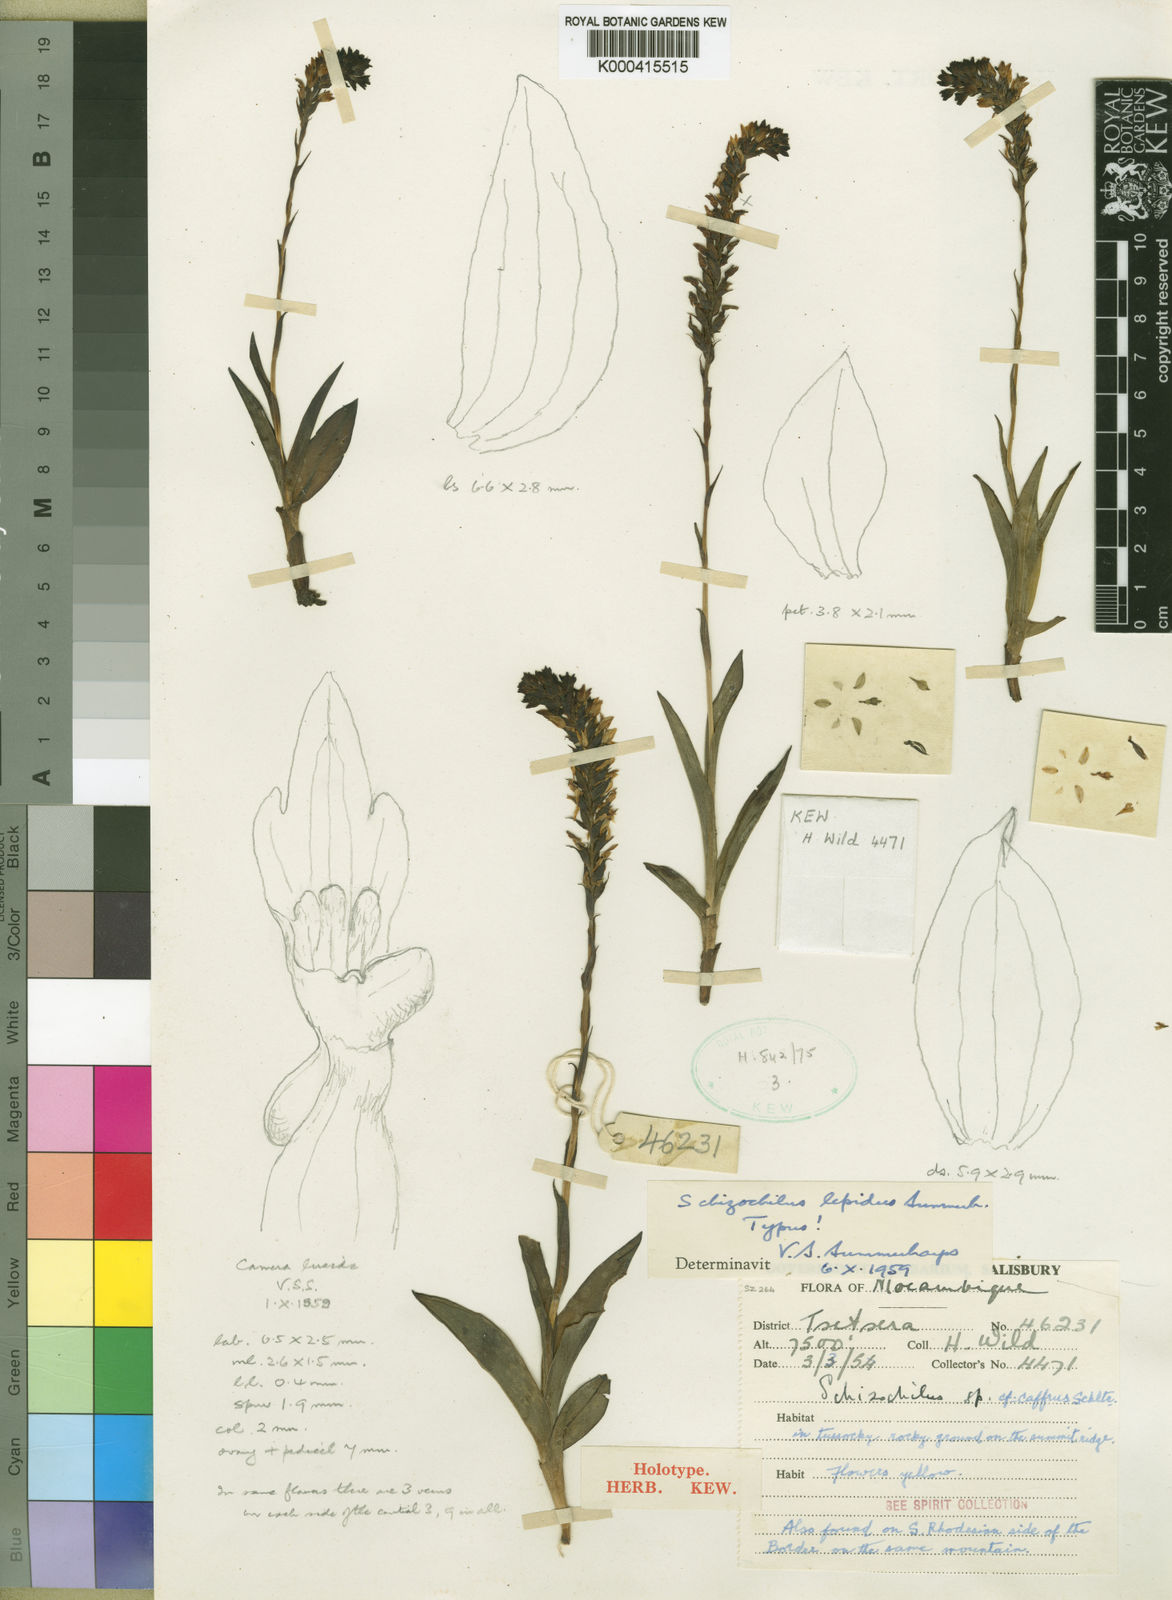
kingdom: Plantae
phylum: Tracheophyta
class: Liliopsida
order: Asparagales
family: Orchidaceae
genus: Schizochilus
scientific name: Schizochilus lepidus
